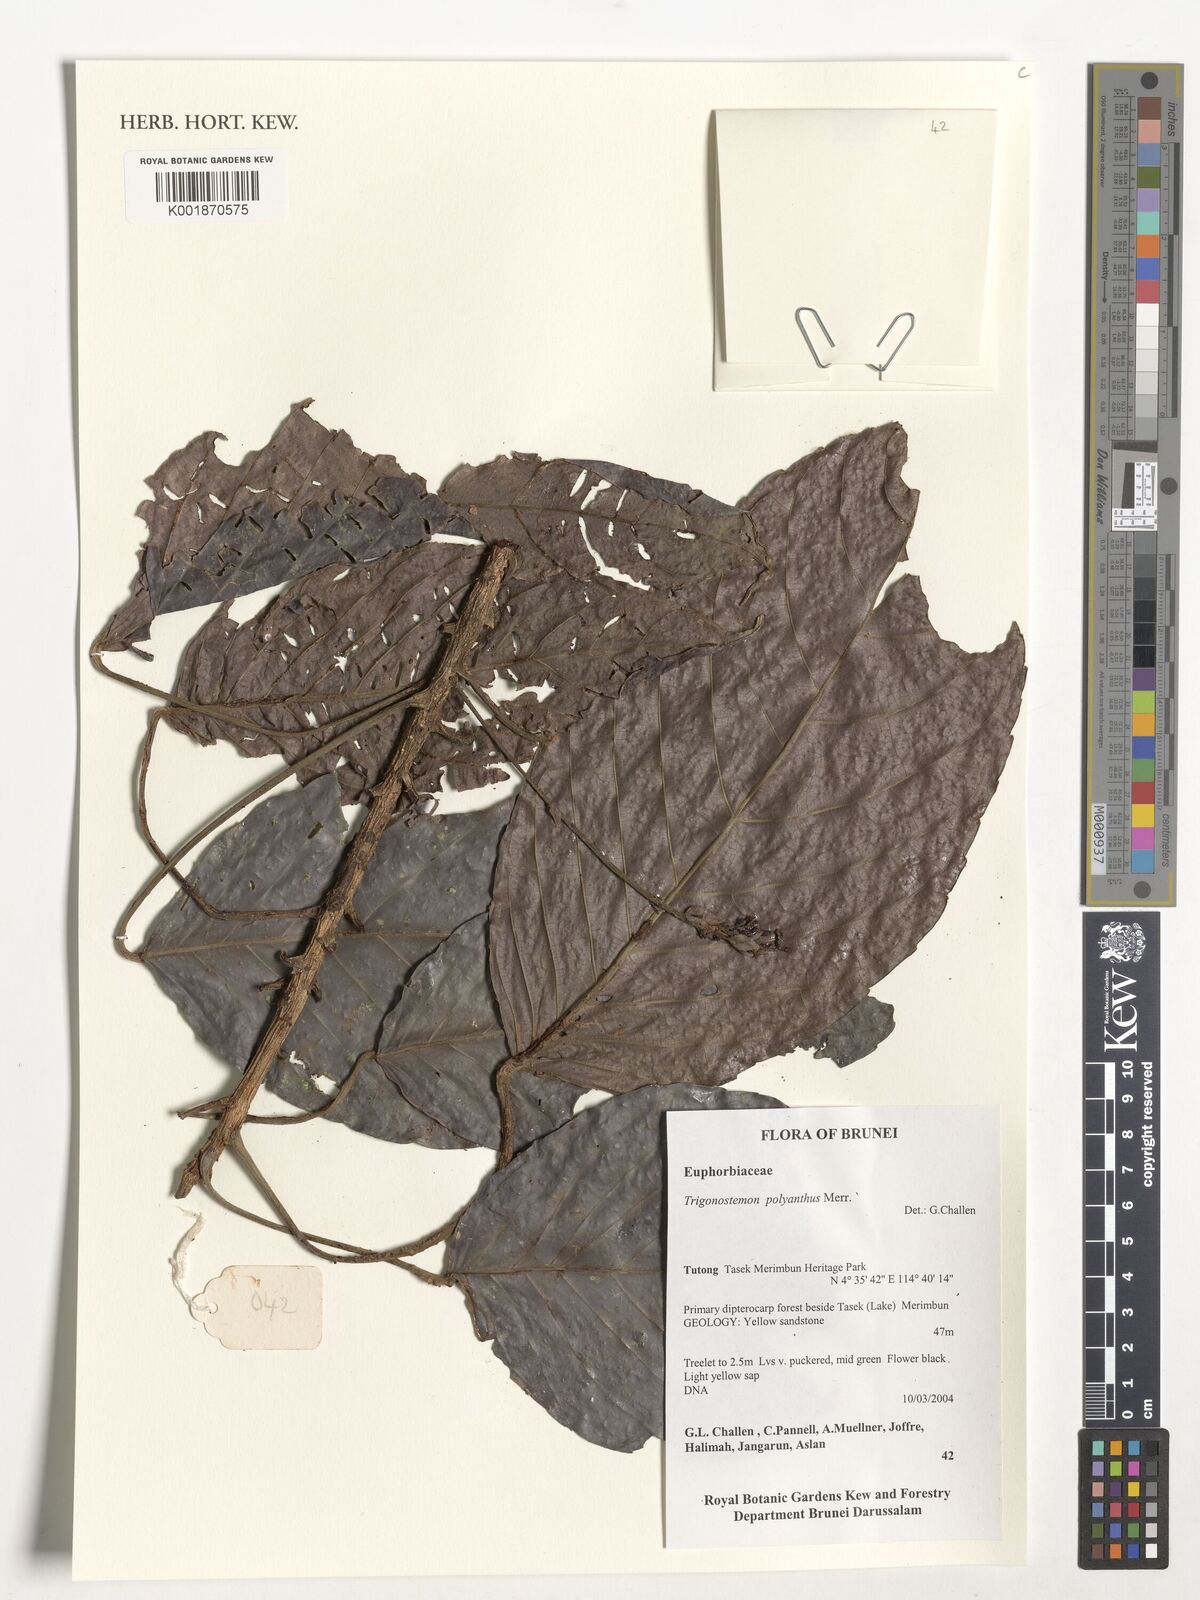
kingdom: Plantae
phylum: Tracheophyta
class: Magnoliopsida
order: Malpighiales
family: Euphorbiaceae
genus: Trigonostemon
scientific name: Trigonostemon polyanthus
